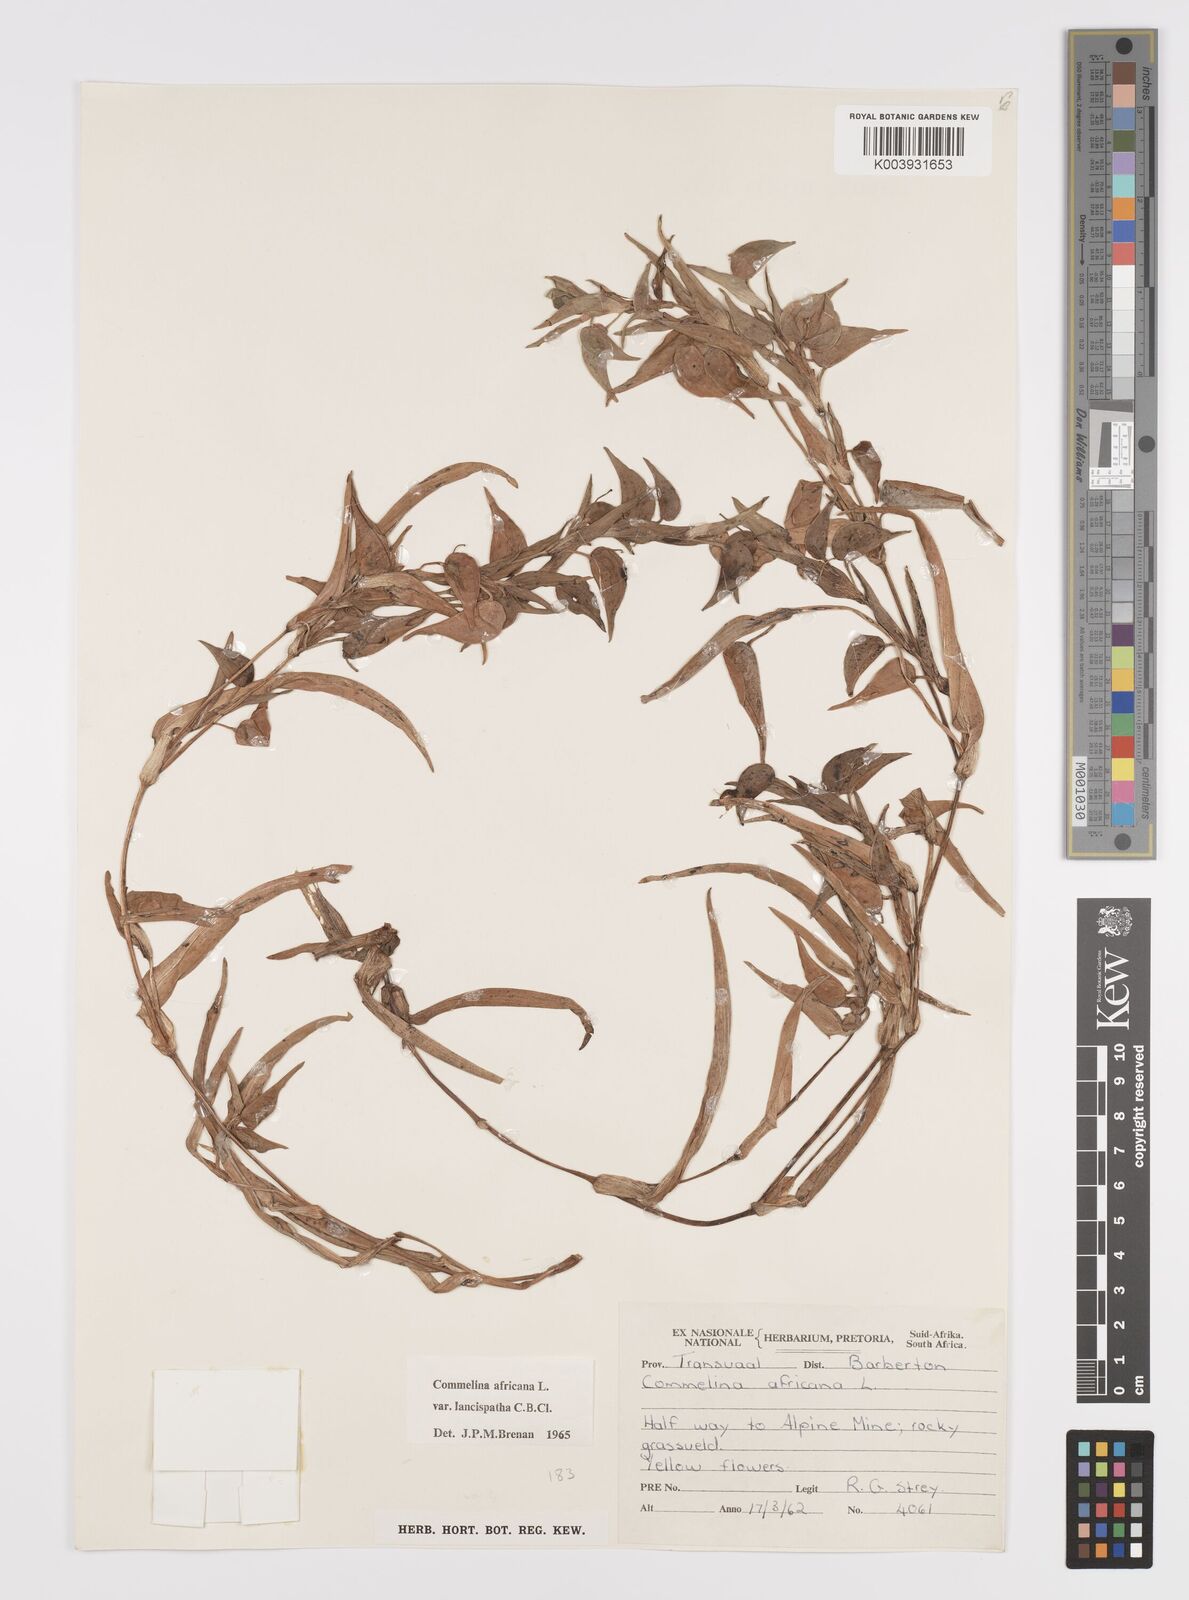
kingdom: Plantae
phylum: Tracheophyta
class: Liliopsida
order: Commelinales
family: Commelinaceae
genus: Commelina
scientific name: Commelina africana
